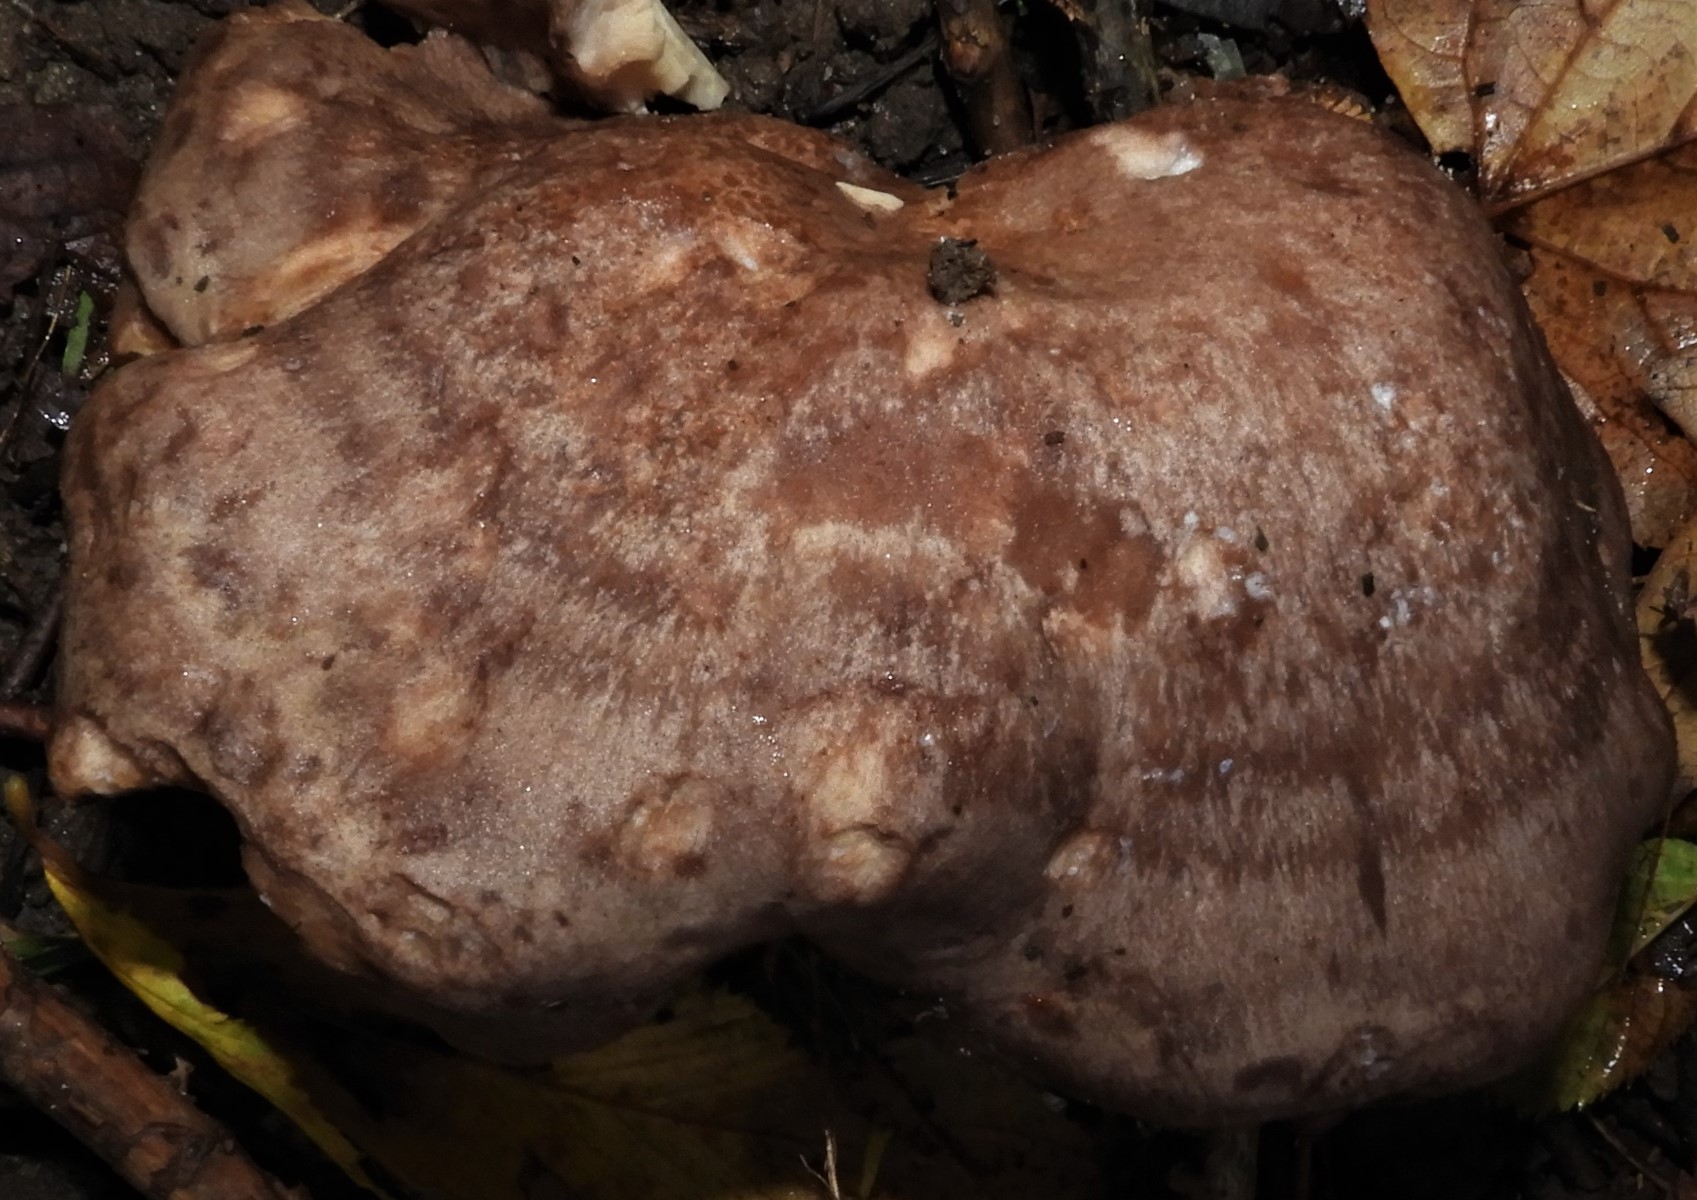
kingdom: Fungi
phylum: Basidiomycota
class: Agaricomycetes
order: Russulales
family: Russulaceae
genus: Lactarius
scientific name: Lactarius circellatus
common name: avnbøg-mælkehat
